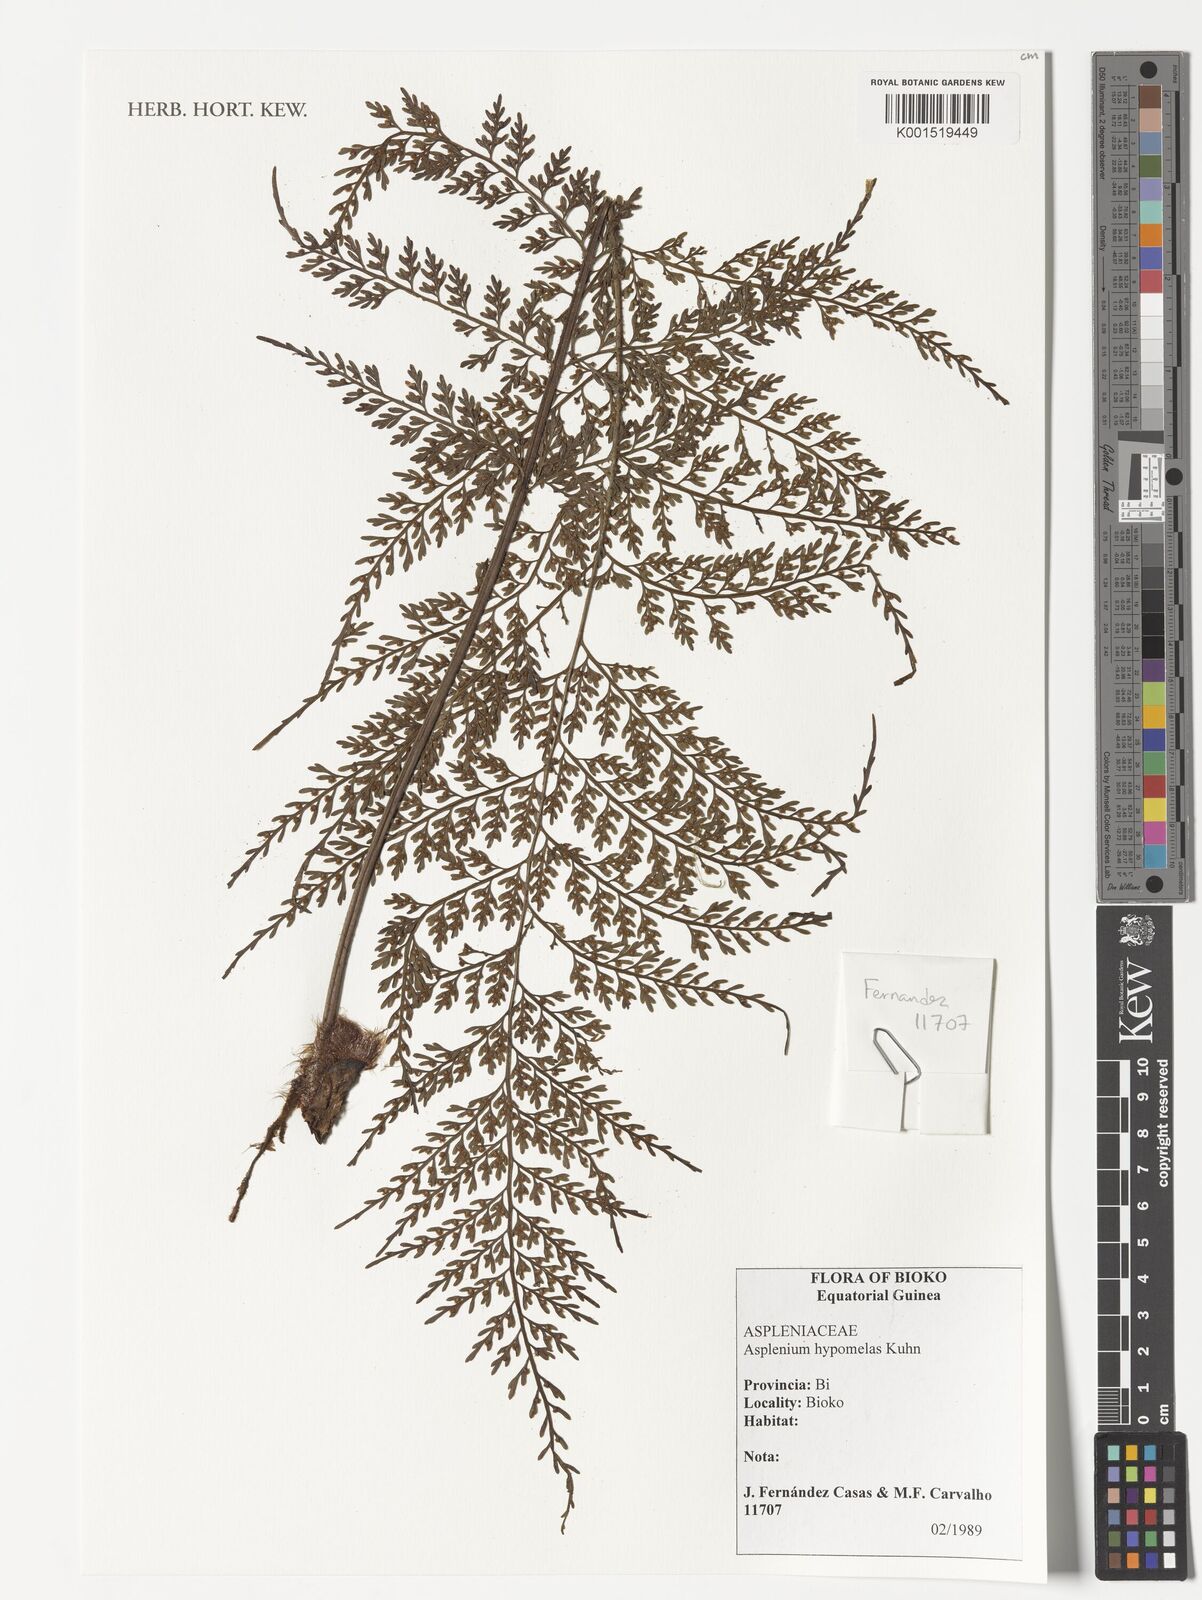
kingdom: Plantae
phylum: Tracheophyta
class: Polypodiopsida
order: Polypodiales
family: Aspleniaceae
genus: Asplenium
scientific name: Asplenium hypomelas
